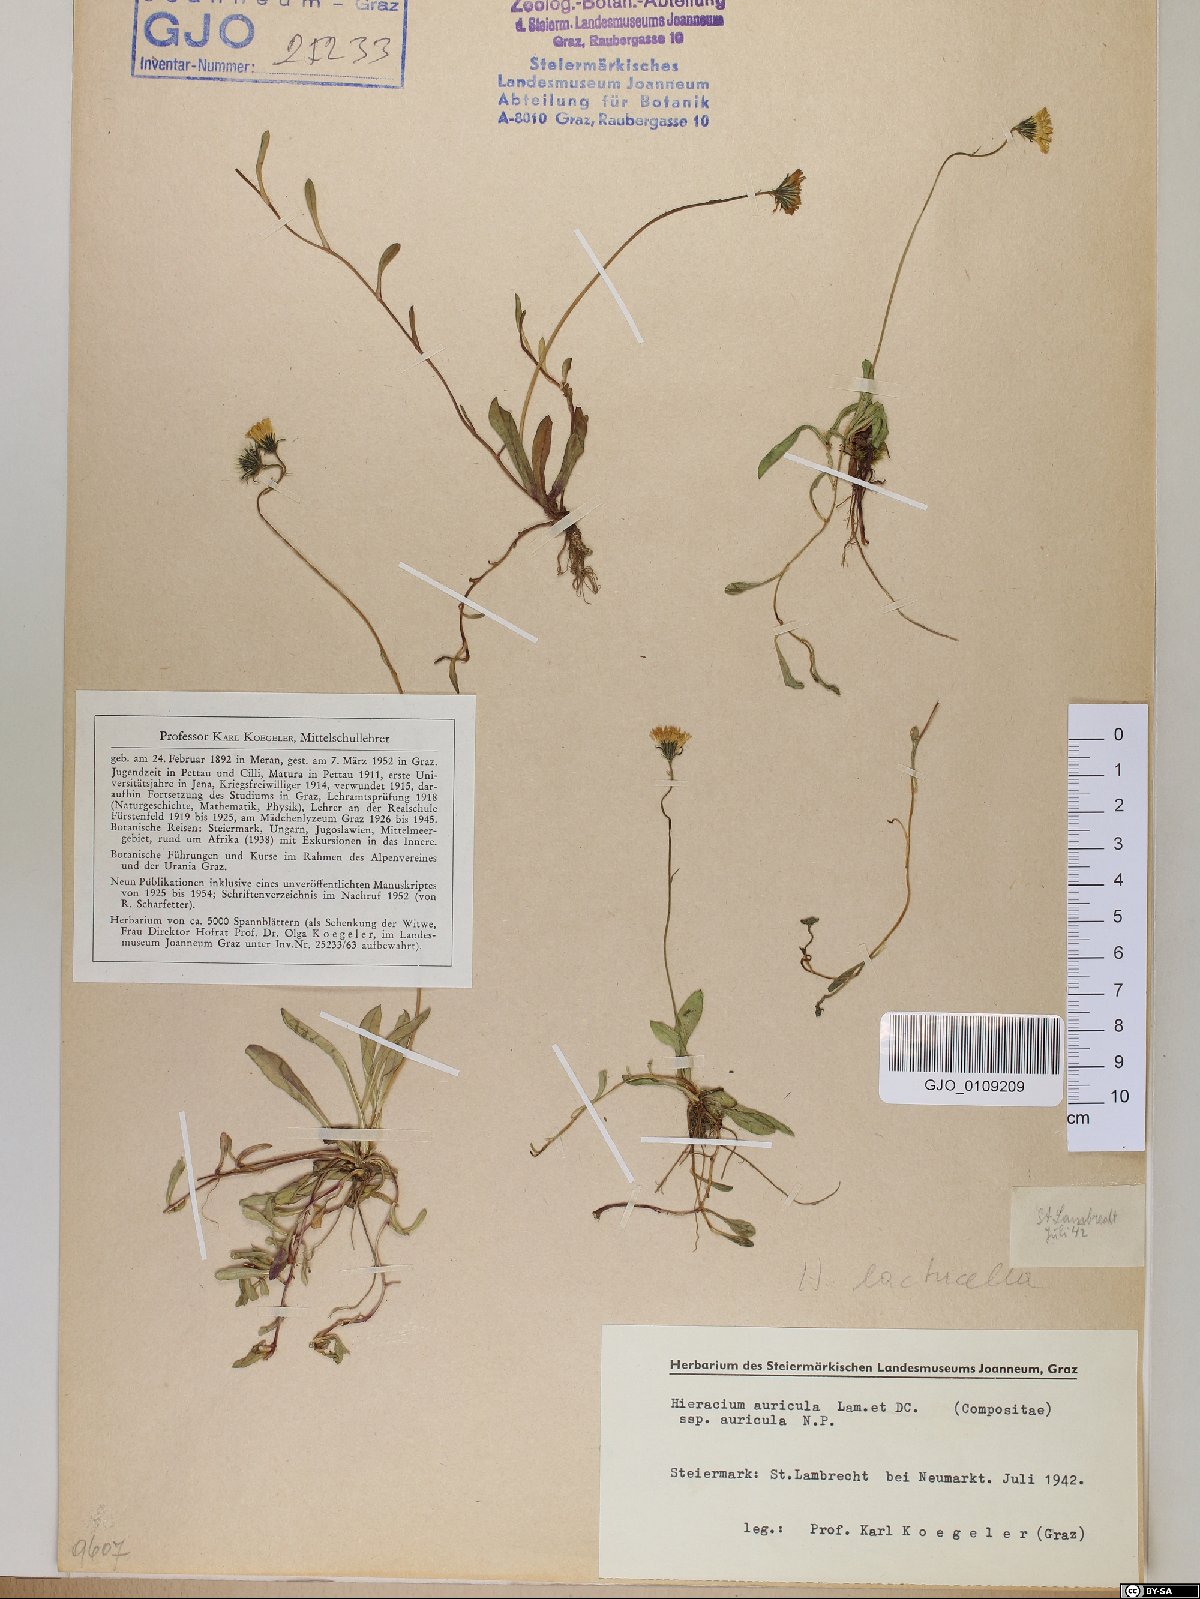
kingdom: Plantae
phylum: Tracheophyta
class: Magnoliopsida
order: Asterales
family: Asteraceae
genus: Hieracium
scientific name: Hieracium auricula
